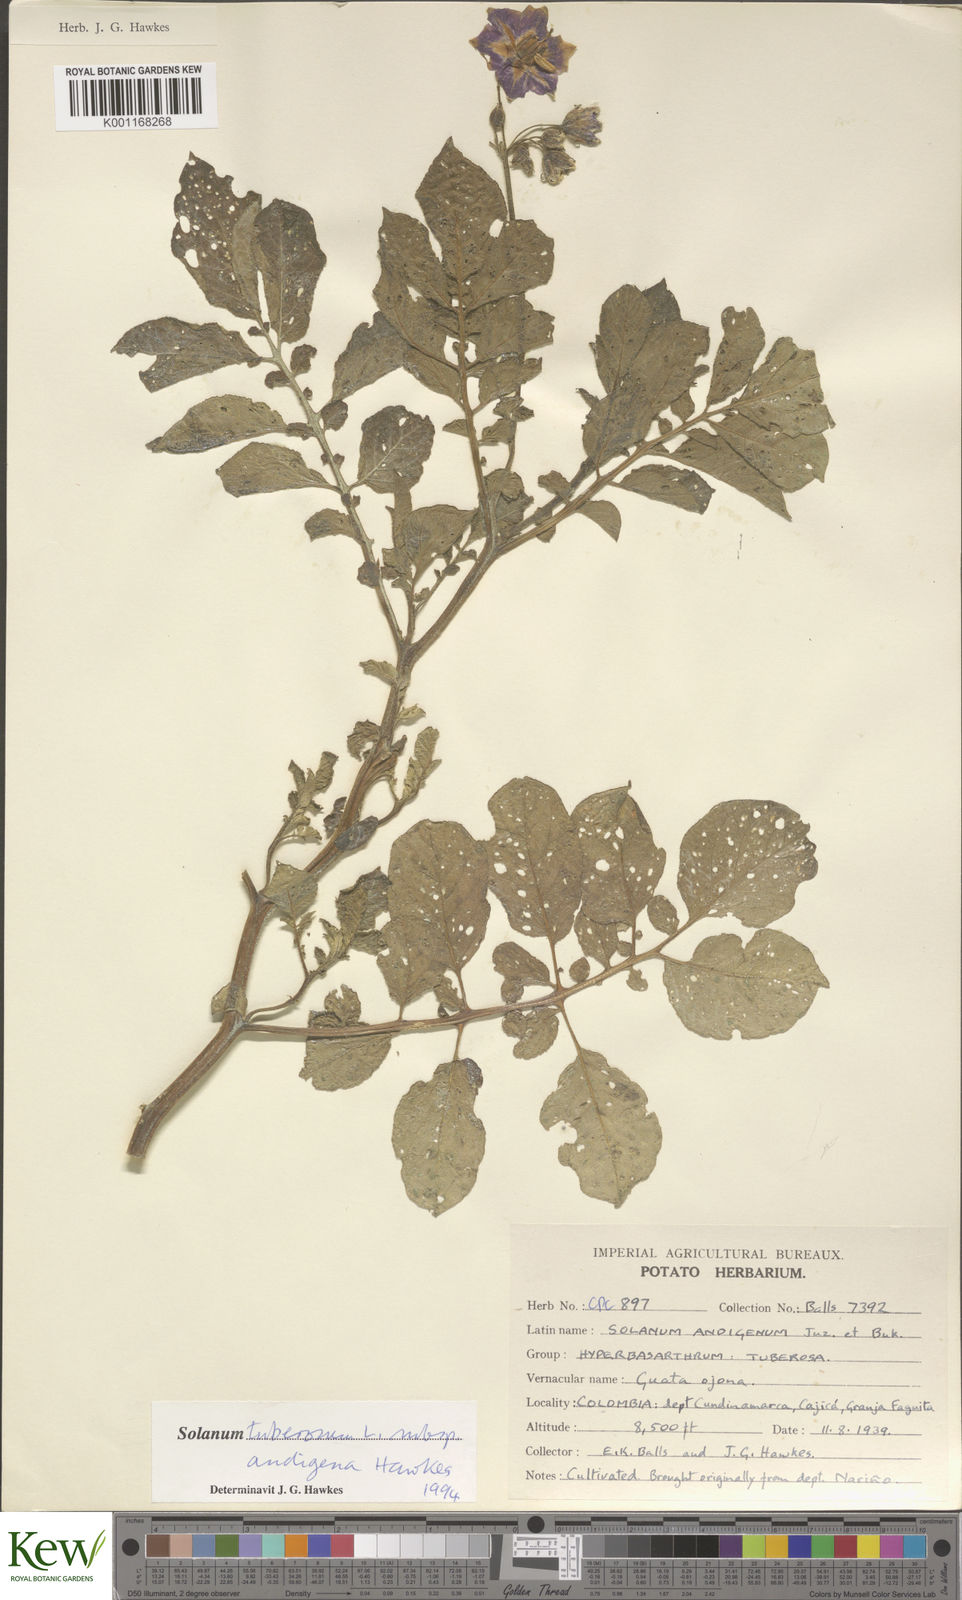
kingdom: Plantae
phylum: Tracheophyta
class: Magnoliopsida
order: Solanales
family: Solanaceae
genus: Solanum
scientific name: Solanum tuberosum
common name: Potato
